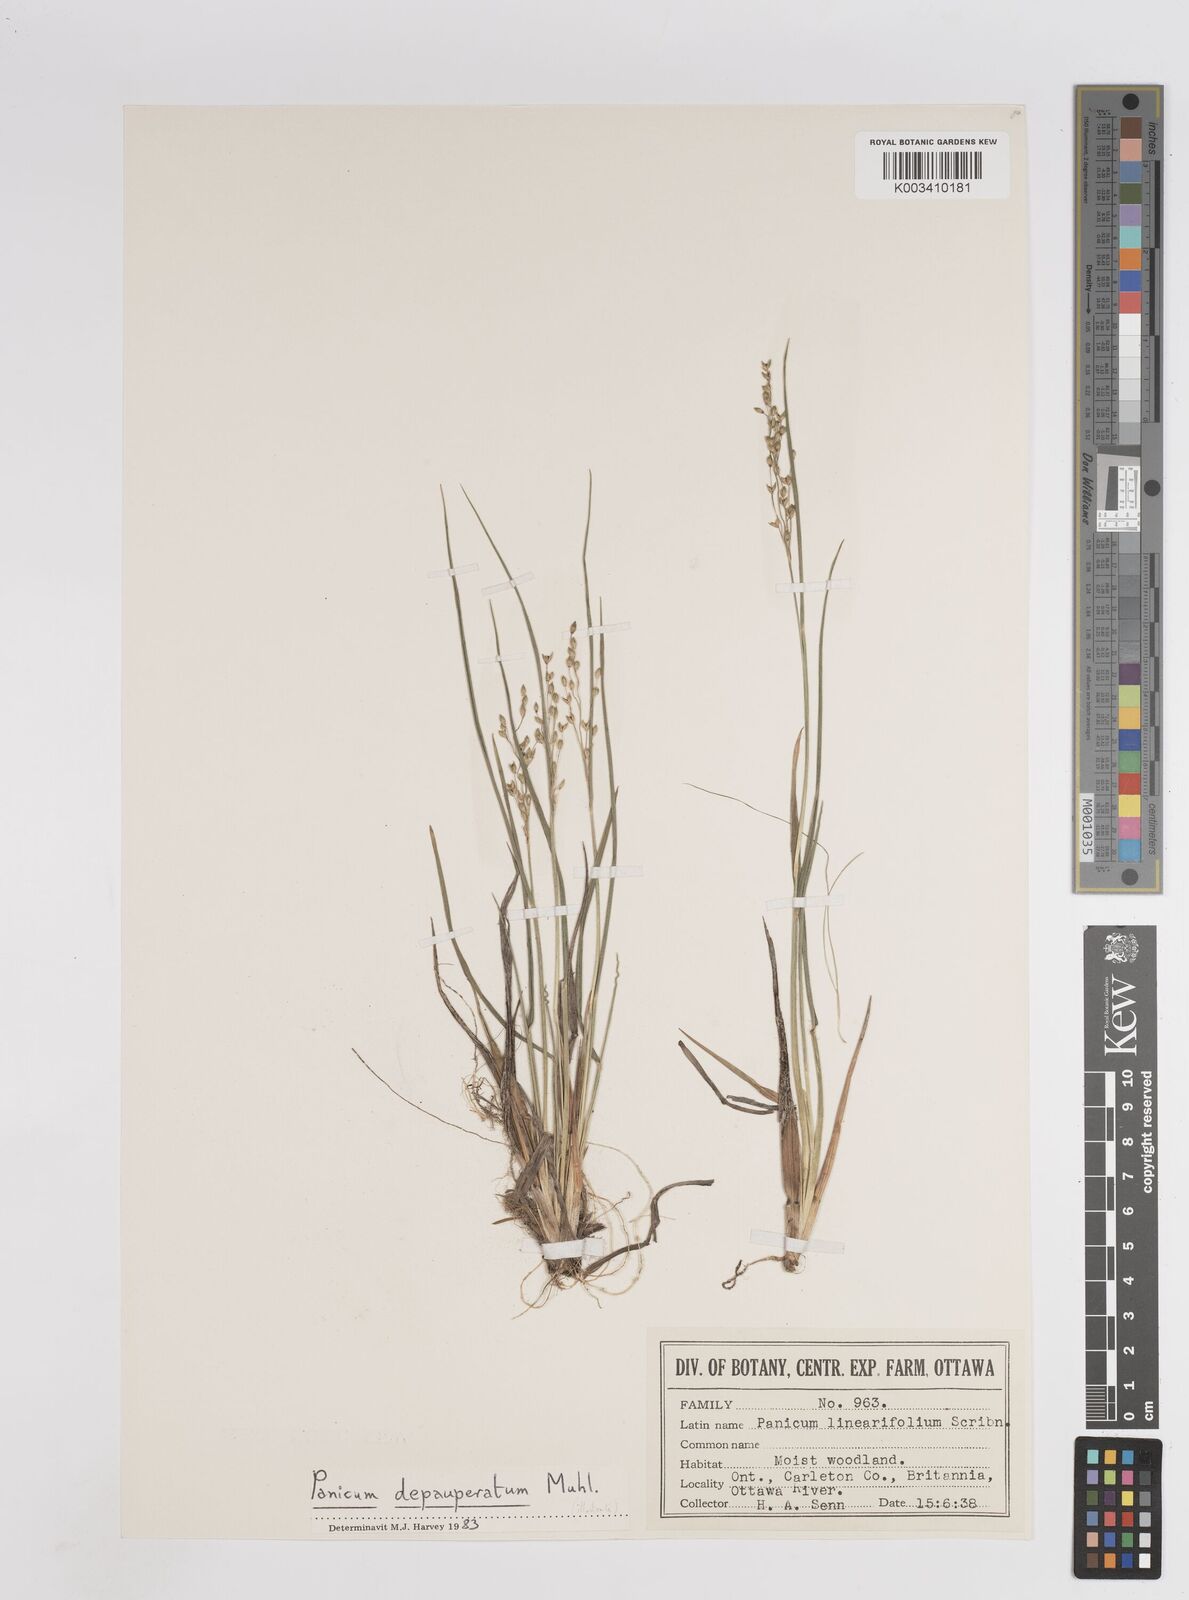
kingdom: Plantae
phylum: Tracheophyta
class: Liliopsida
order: Poales
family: Poaceae
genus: Dichanthelium
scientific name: Dichanthelium depauperatum
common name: Depauperate panicgrass
